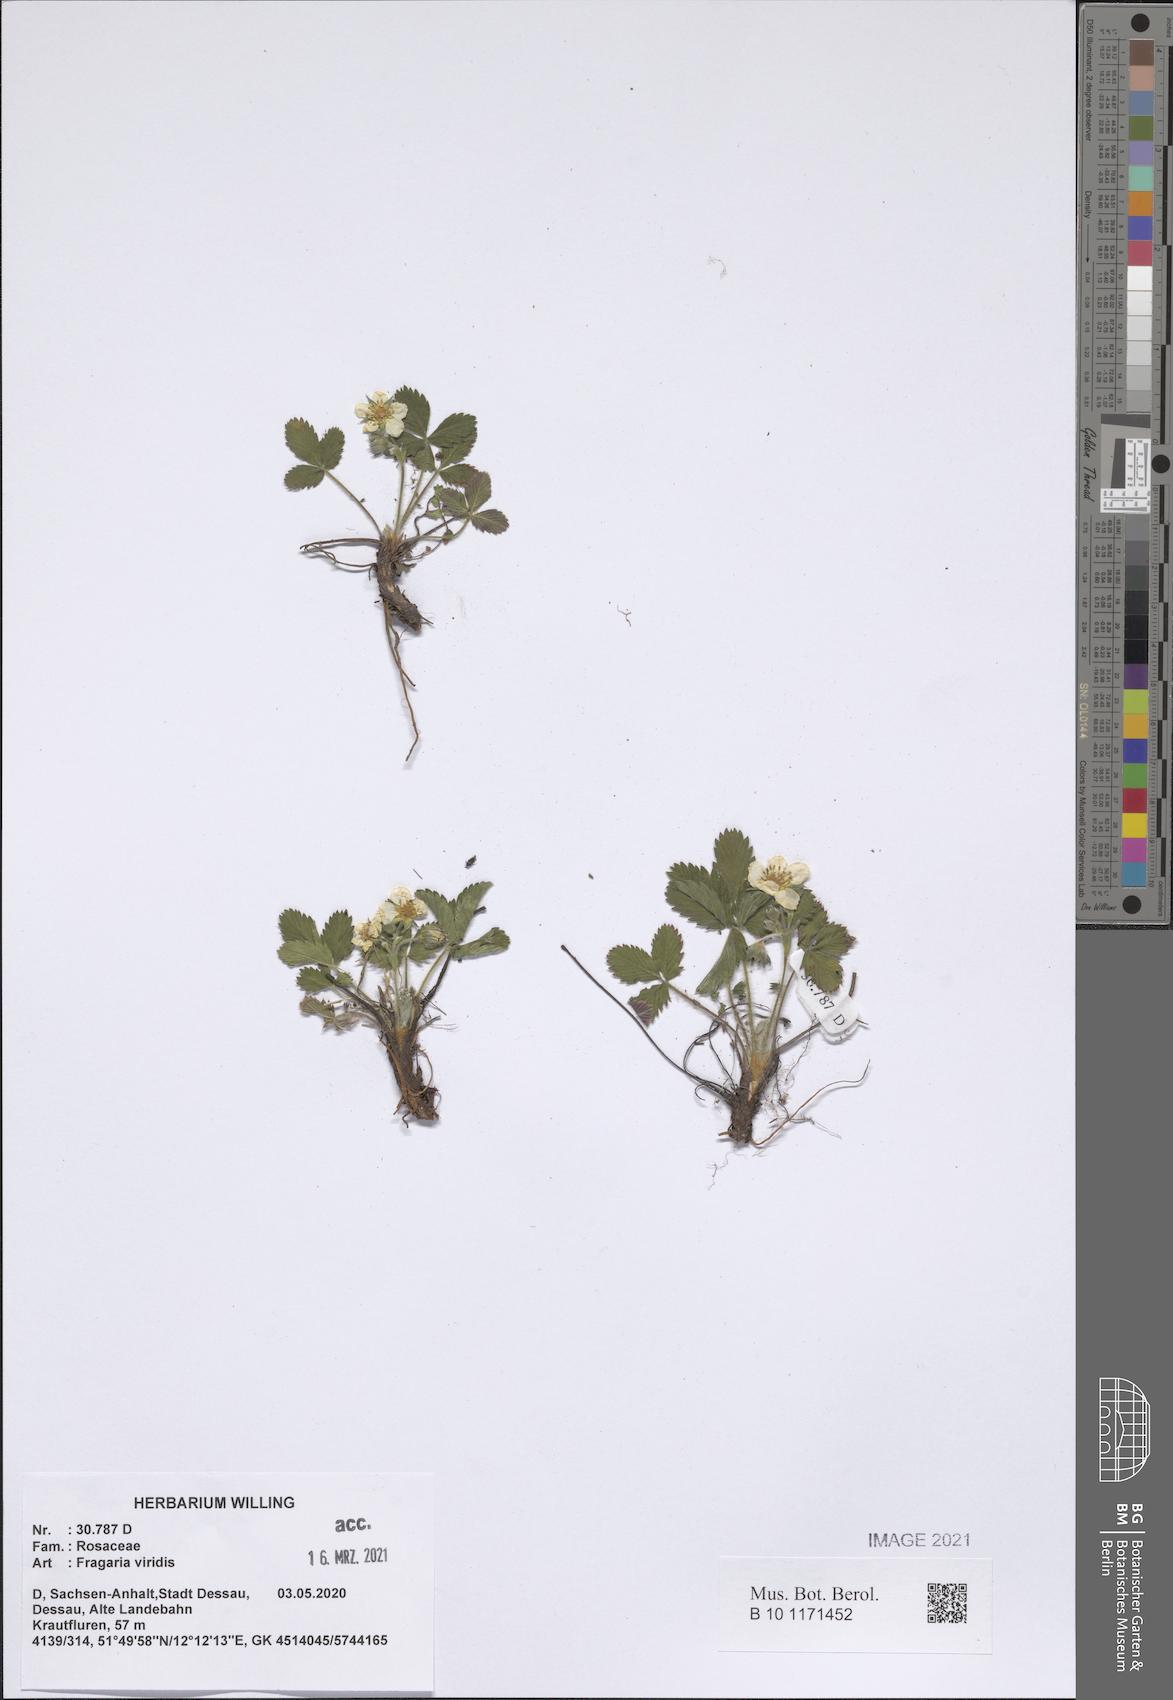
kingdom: Plantae
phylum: Tracheophyta
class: Magnoliopsida
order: Rosales
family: Rosaceae
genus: Fragaria
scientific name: Fragaria viridis
